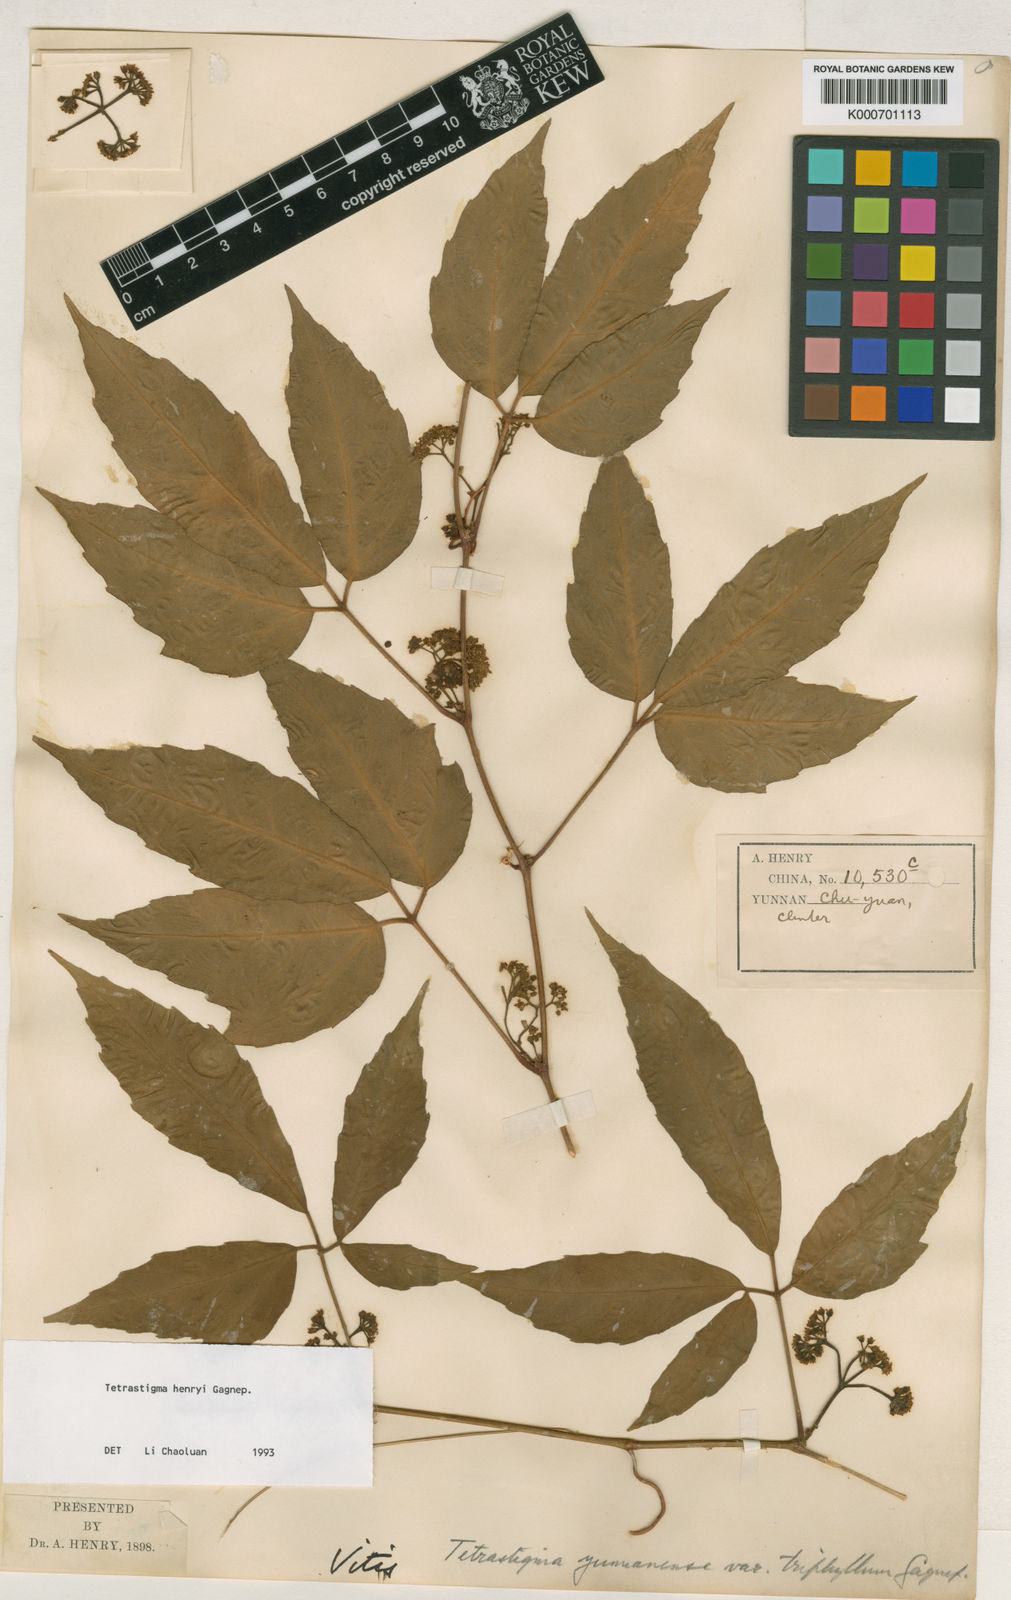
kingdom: Plantae
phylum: Tracheophyta
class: Magnoliopsida
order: Vitales
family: Vitaceae
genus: Tetrastigma
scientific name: Tetrastigma dubium
